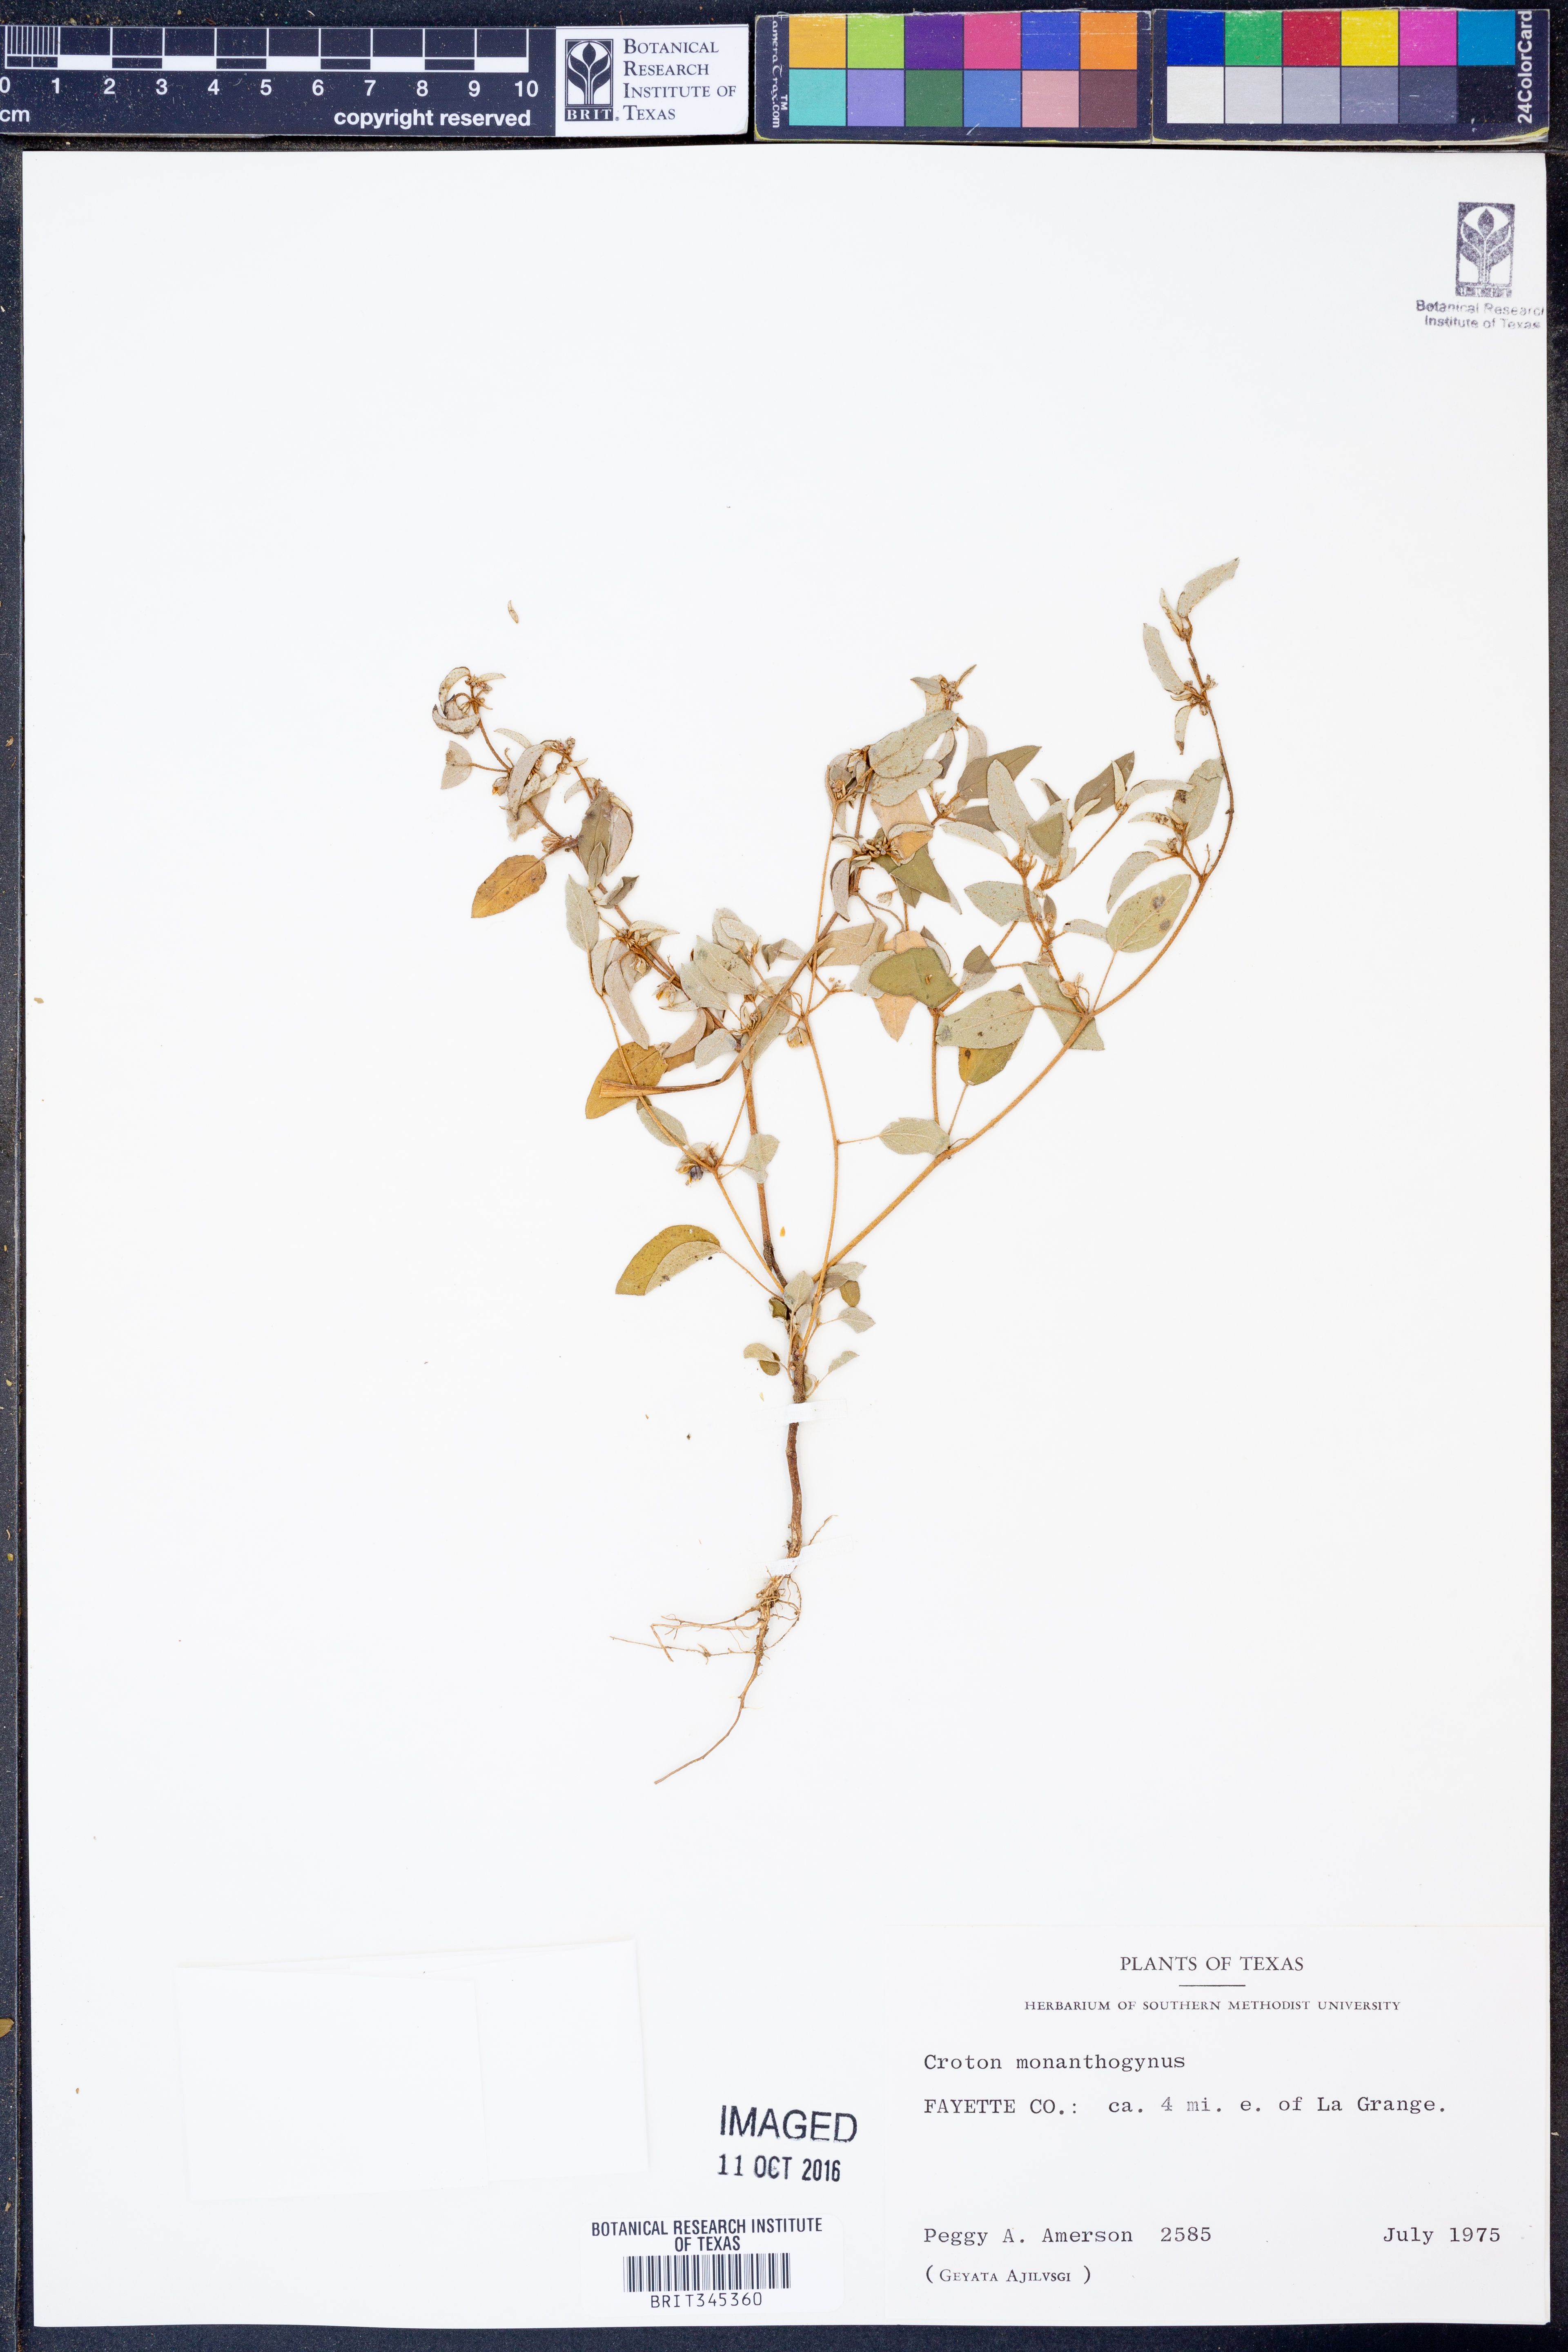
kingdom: Plantae
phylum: Tracheophyta
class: Magnoliopsida
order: Malpighiales
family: Euphorbiaceae
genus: Croton
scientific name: Croton monanthogynus
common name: One-seed croton
